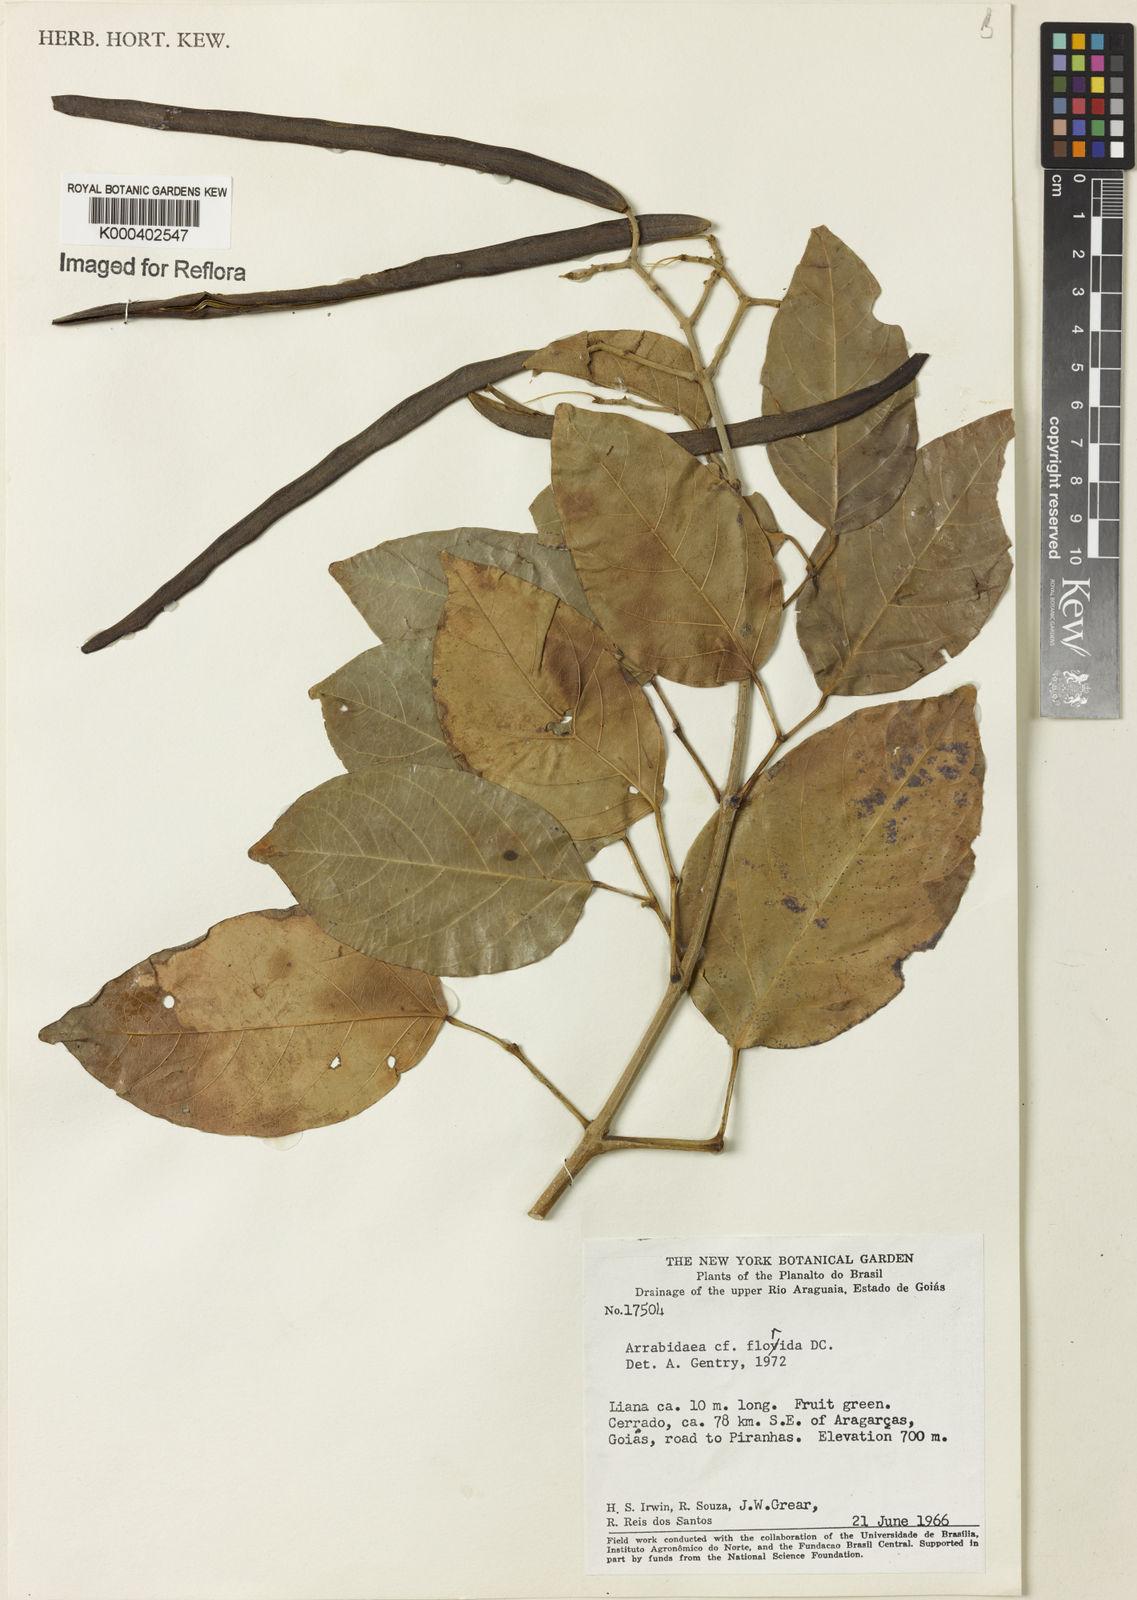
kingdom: Plantae
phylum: Tracheophyta
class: Magnoliopsida
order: Lamiales
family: Bignoniaceae
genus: Fridericia
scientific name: Fridericia florida
